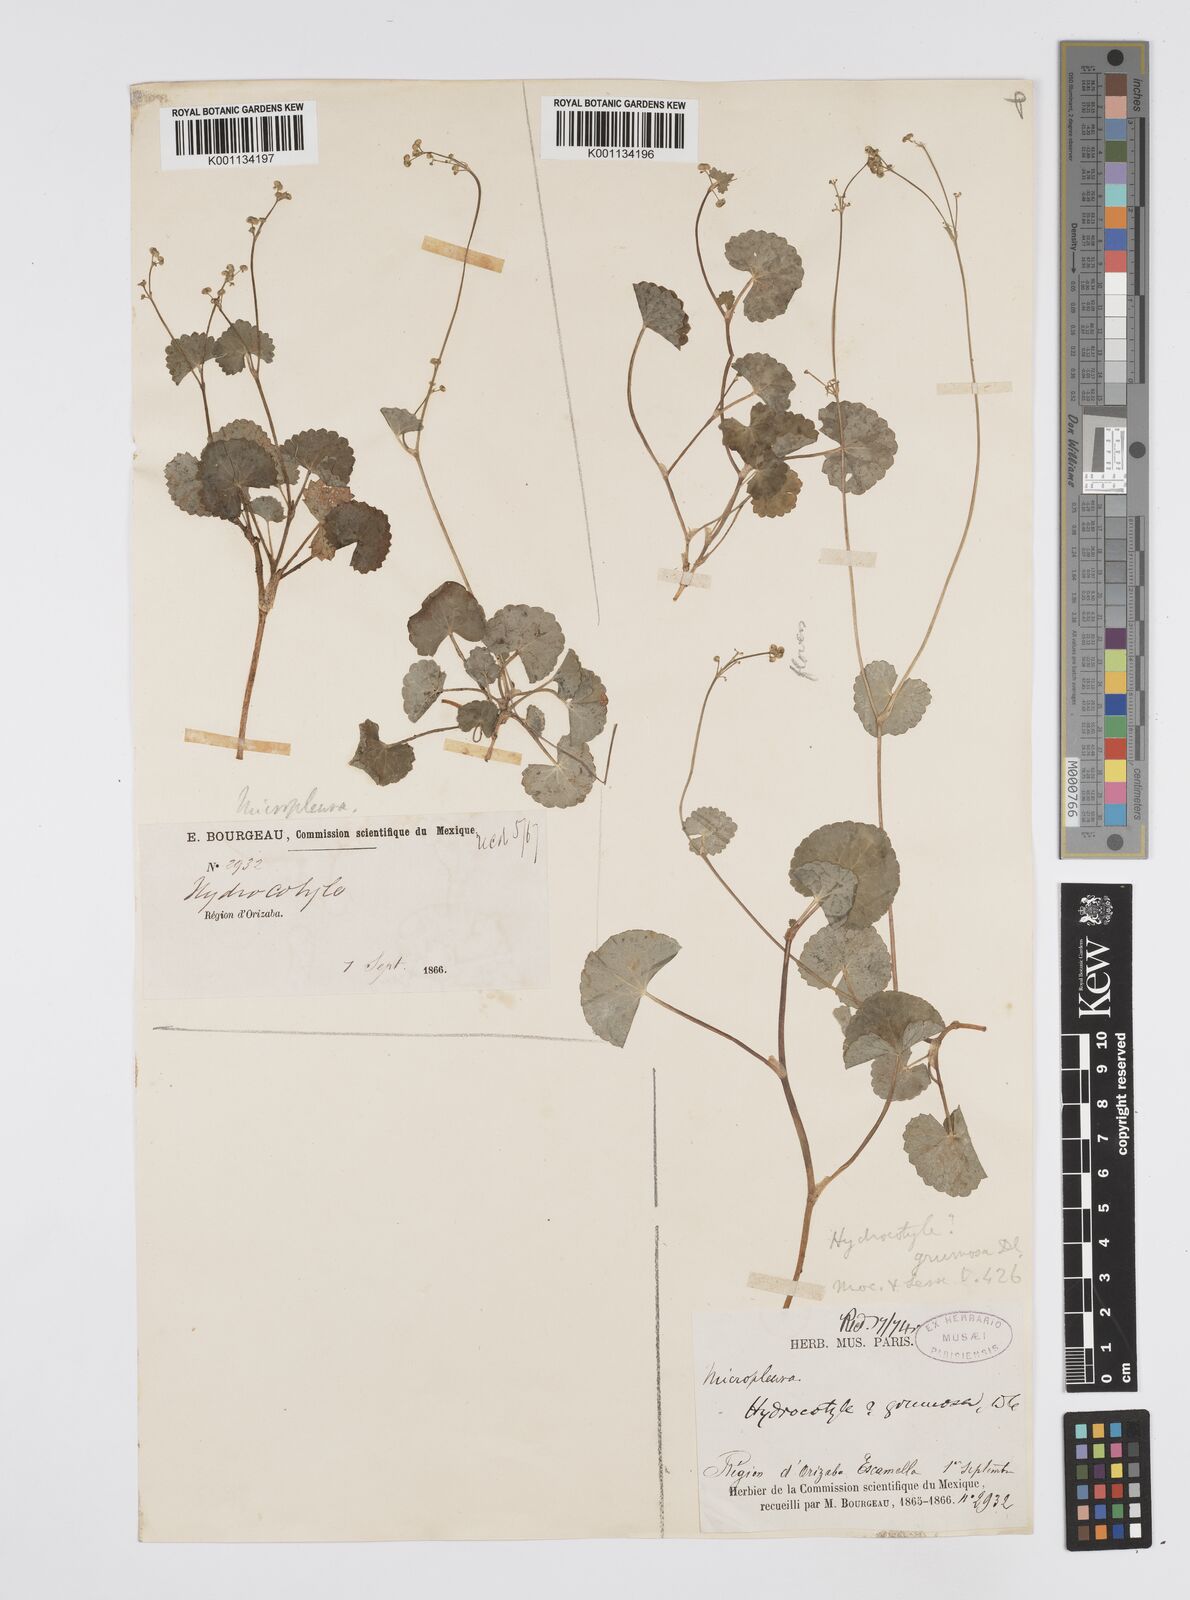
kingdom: Plantae
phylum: Tracheophyta
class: Magnoliopsida
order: Apiales
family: Apiaceae
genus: Micropleura
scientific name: Micropleura renifolia
